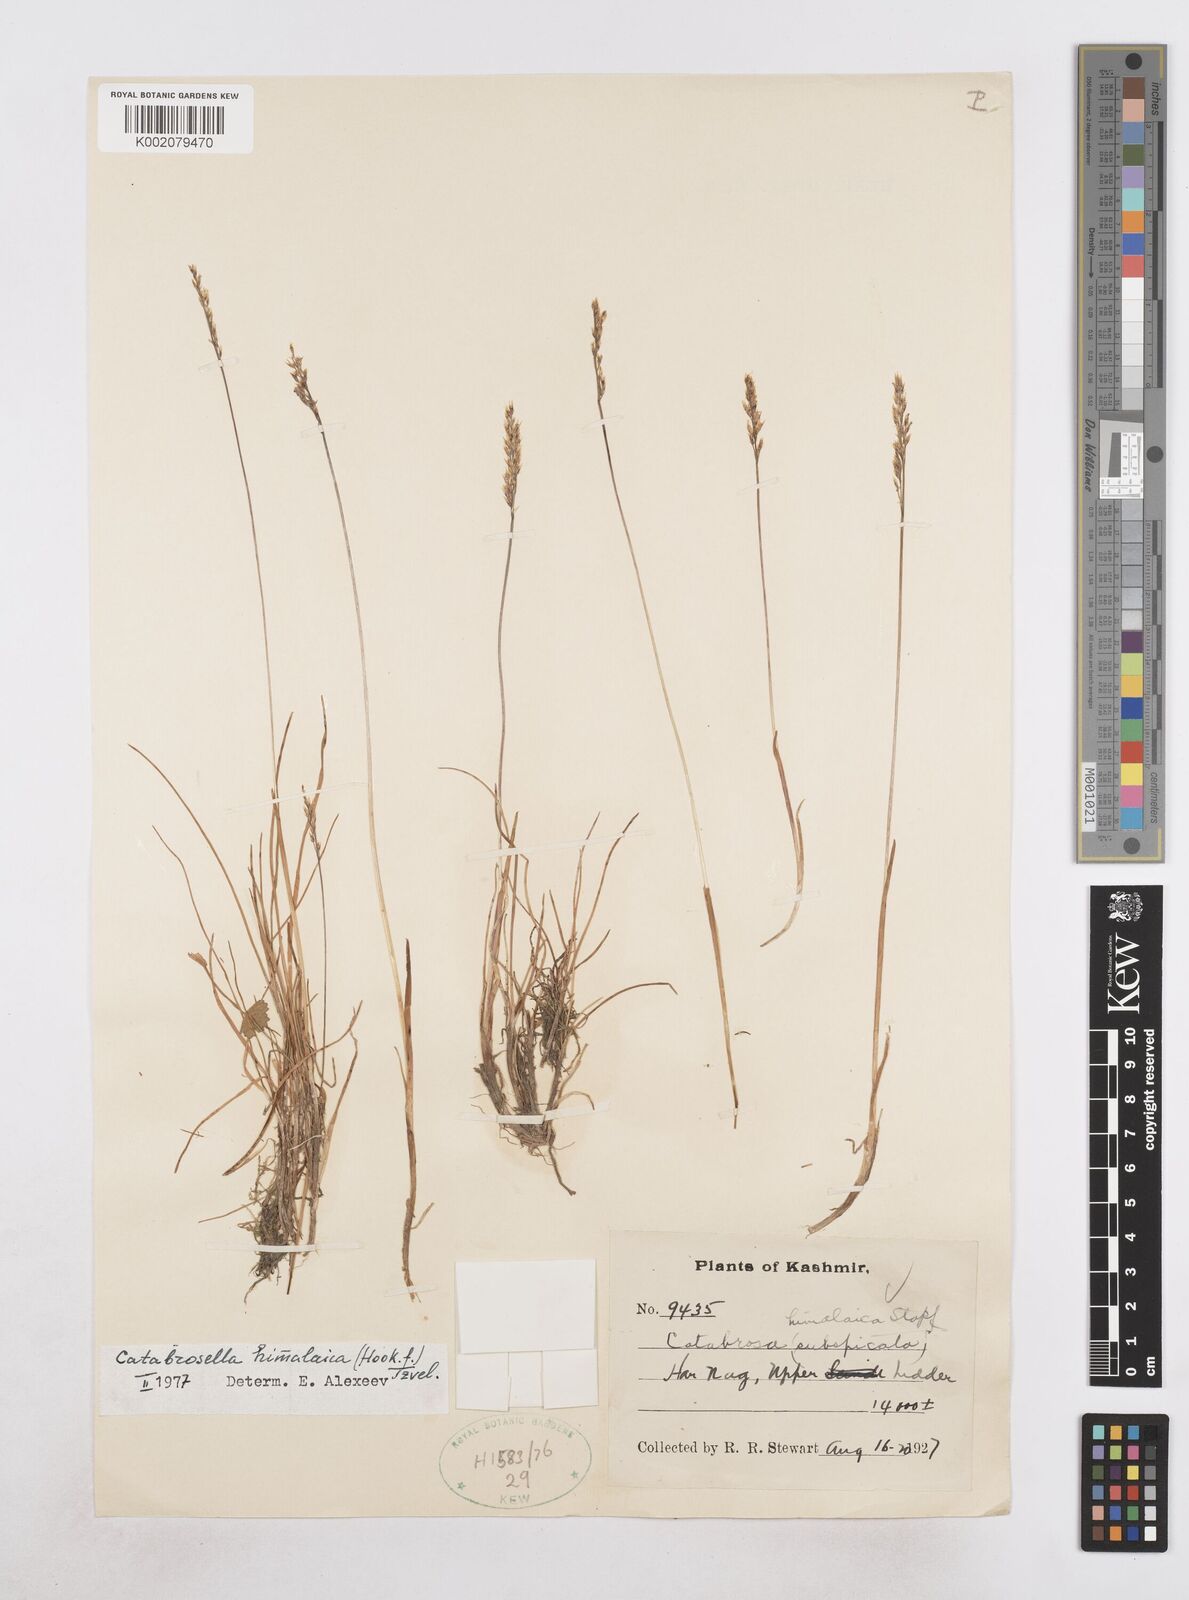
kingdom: Plantae
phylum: Tracheophyta
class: Liliopsida
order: Poales
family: Poaceae
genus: Catabrosella
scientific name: Catabrosella himalaica
